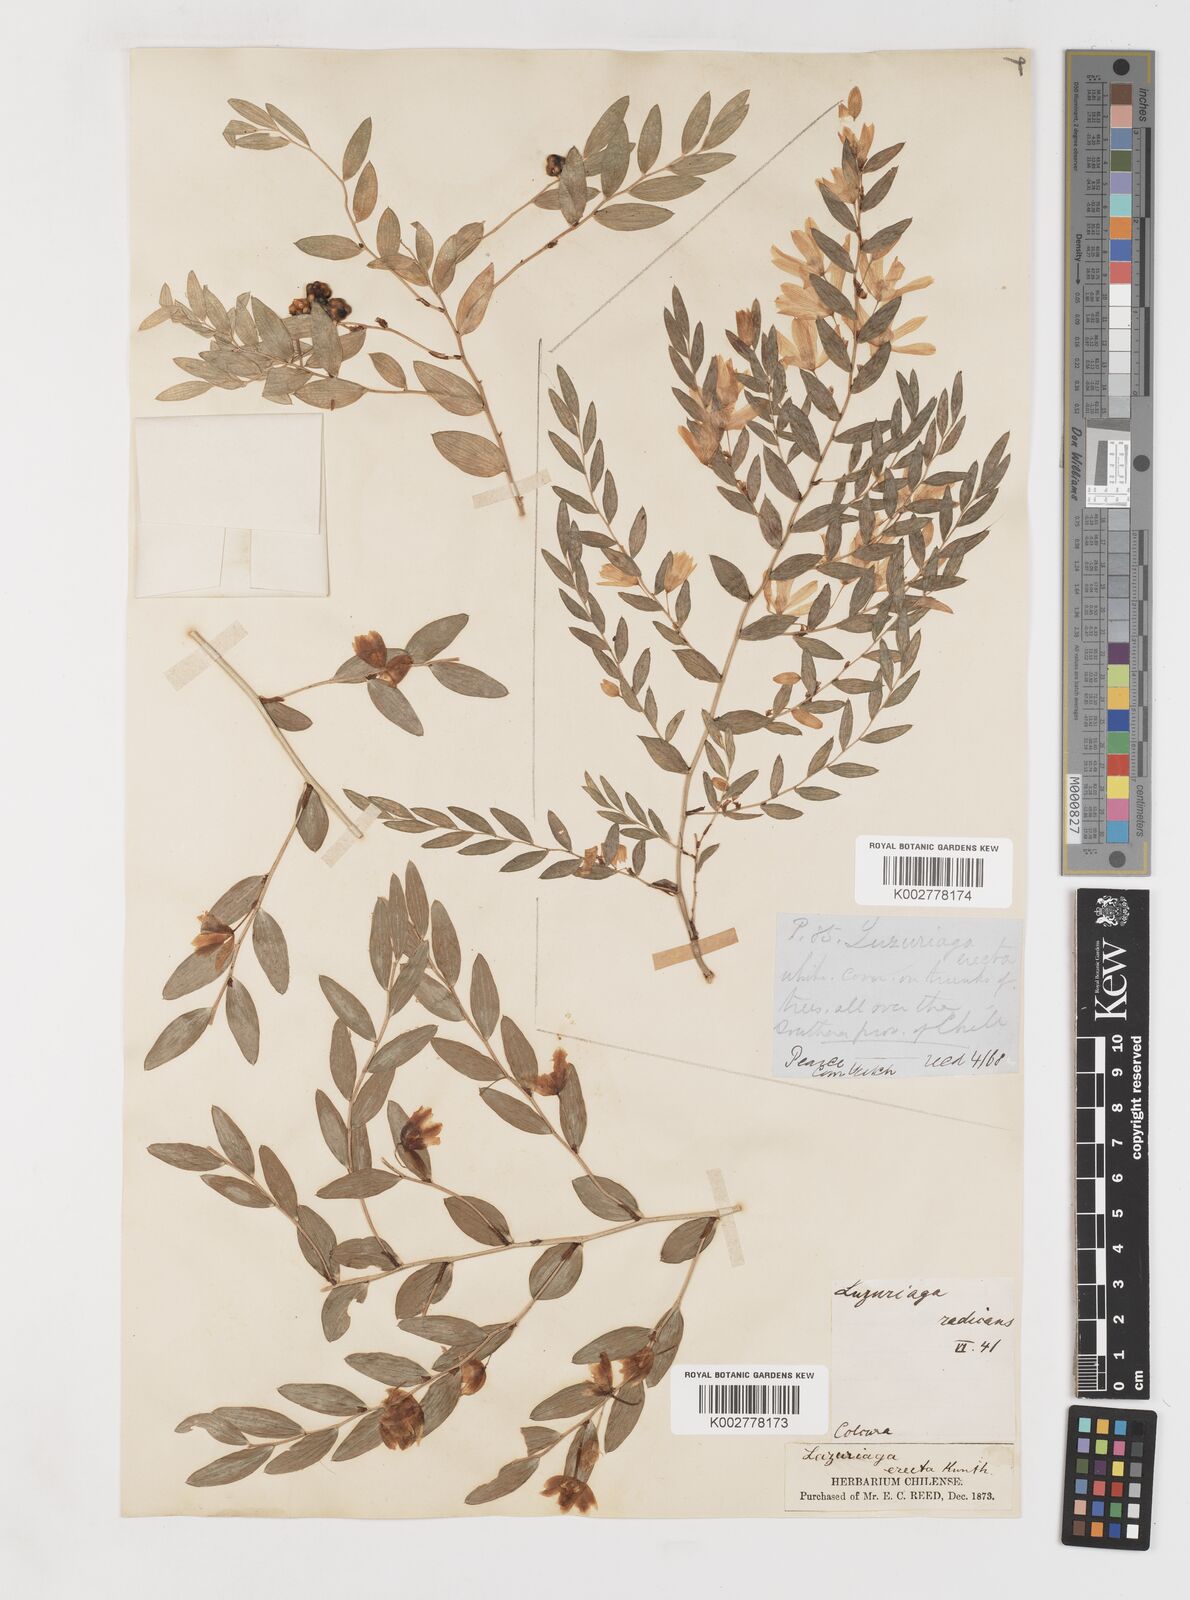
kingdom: Plantae
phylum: Tracheophyta
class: Liliopsida
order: Liliales
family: Alstroemeriaceae
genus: Luzuriaga
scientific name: Luzuriaga polyphylla
